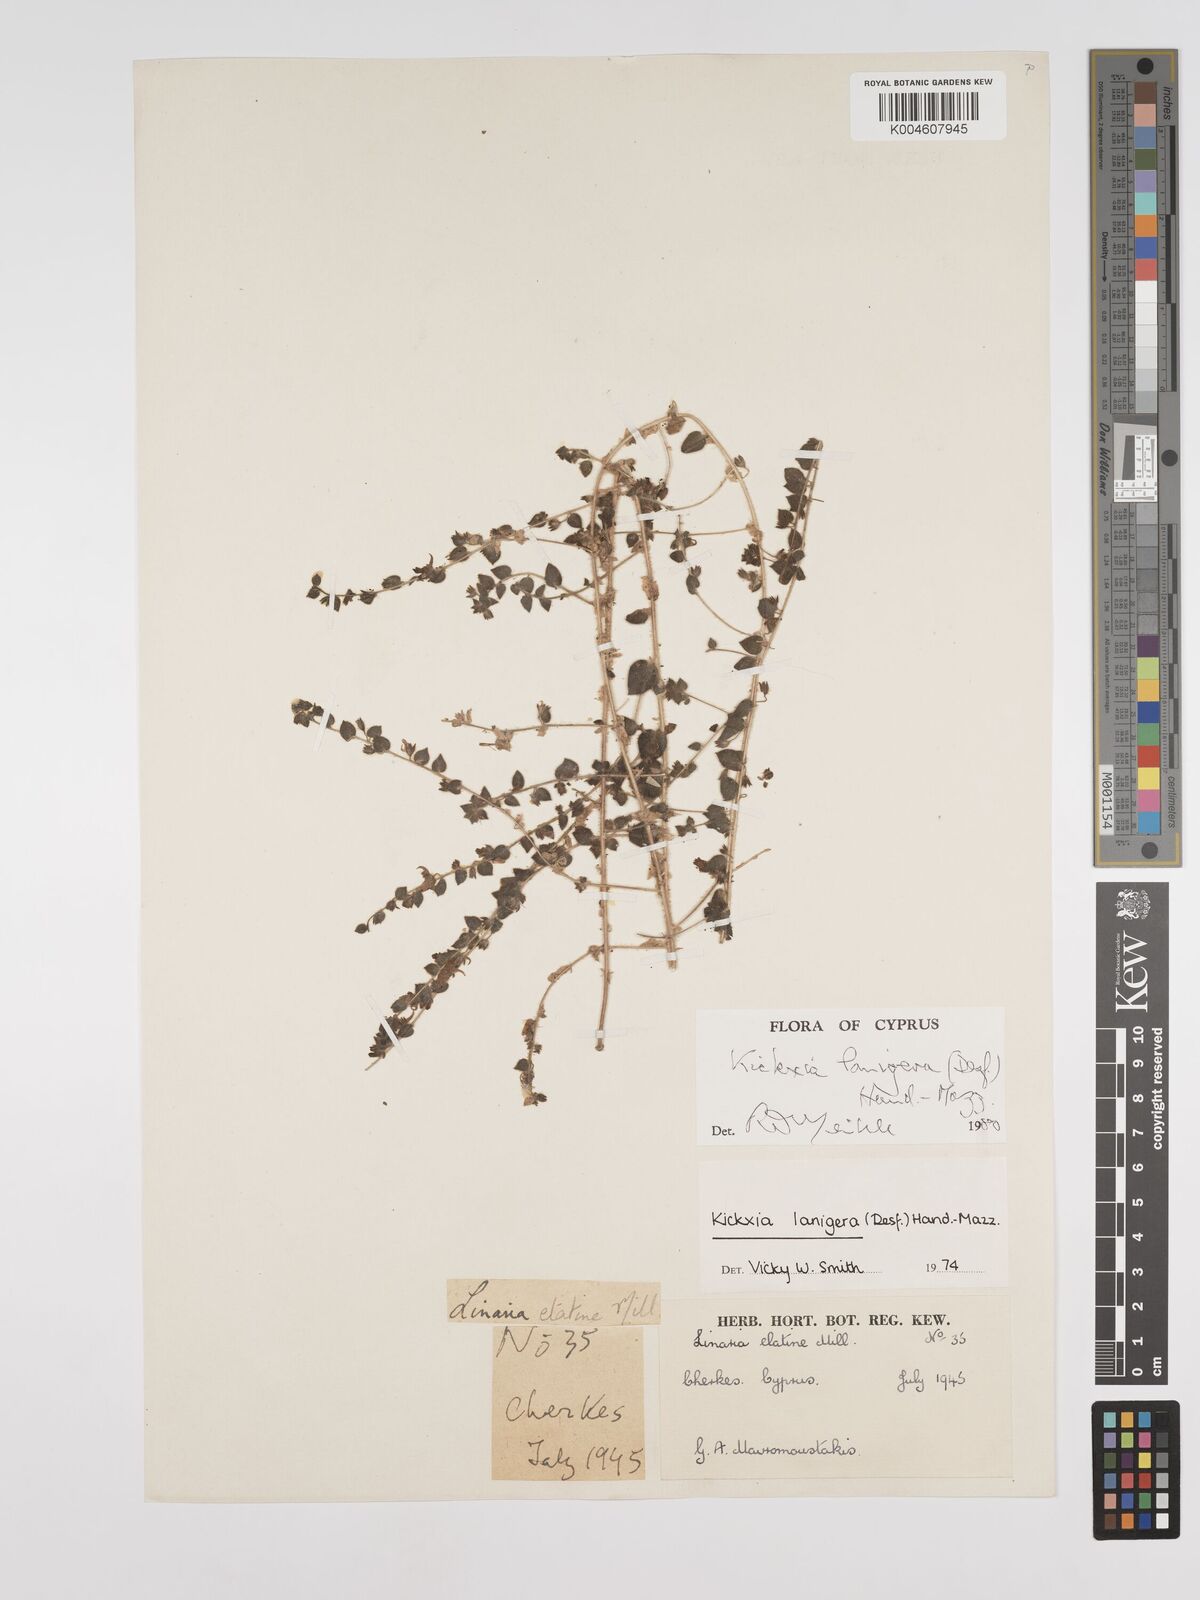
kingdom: Plantae
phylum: Tracheophyta
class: Magnoliopsida
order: Lamiales
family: Plantaginaceae
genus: Kickxia
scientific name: Kickxia lanigera
